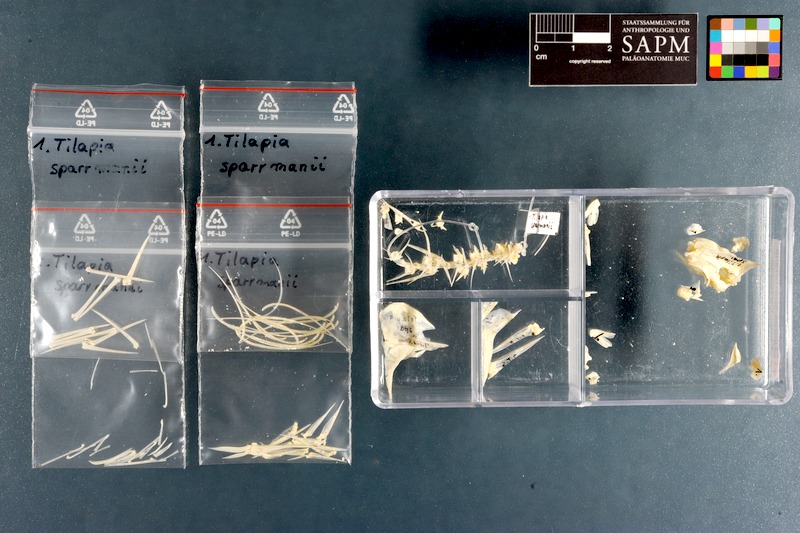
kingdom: Animalia
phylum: Chordata
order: Perciformes
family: Cichlidae
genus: Tilapia
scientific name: Tilapia sparrmanii
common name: Banded tilapia
